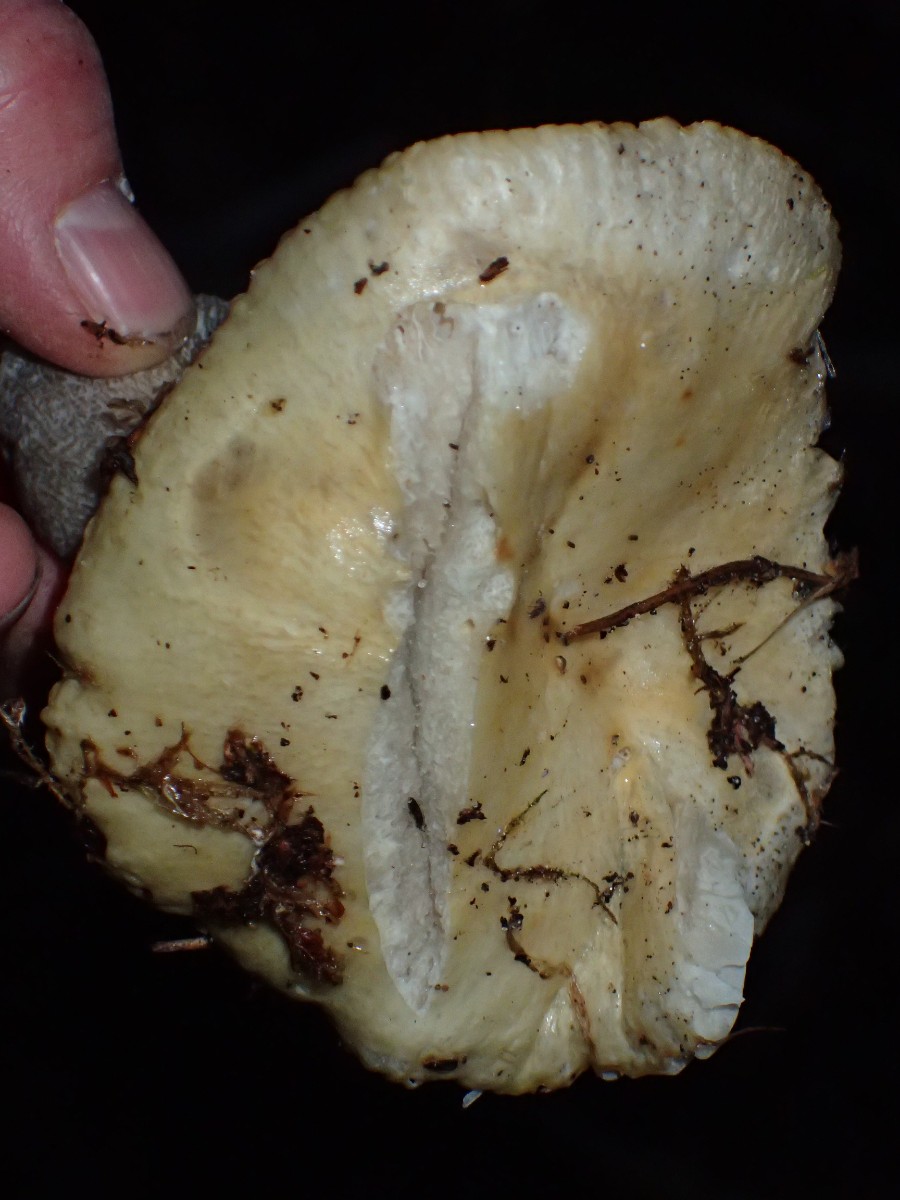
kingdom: Fungi
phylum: Basidiomycota
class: Agaricomycetes
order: Russulales
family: Russulaceae
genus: Russula
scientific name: Russula ochroleuca
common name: okkergul skørhat
